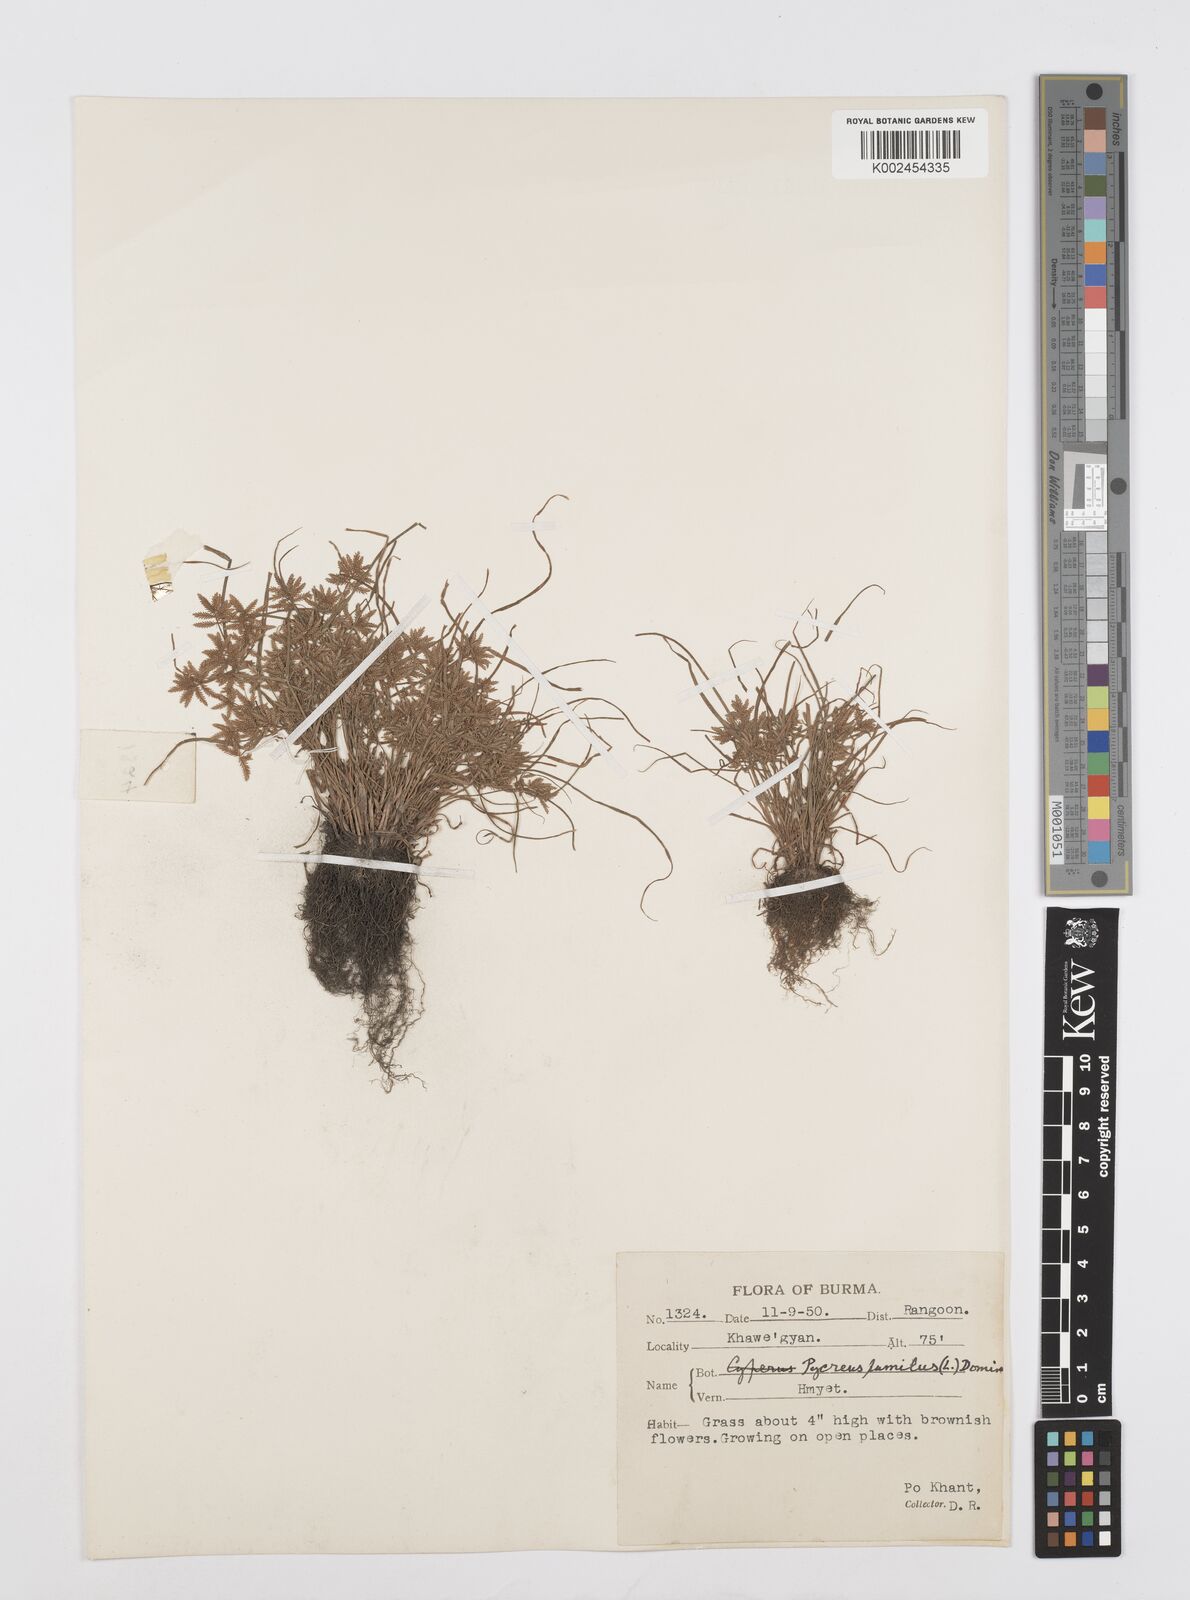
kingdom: Plantae
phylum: Tracheophyta
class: Liliopsida
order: Poales
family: Cyperaceae
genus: Cyperus
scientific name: Cyperus pumilus
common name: Low flatsedge
